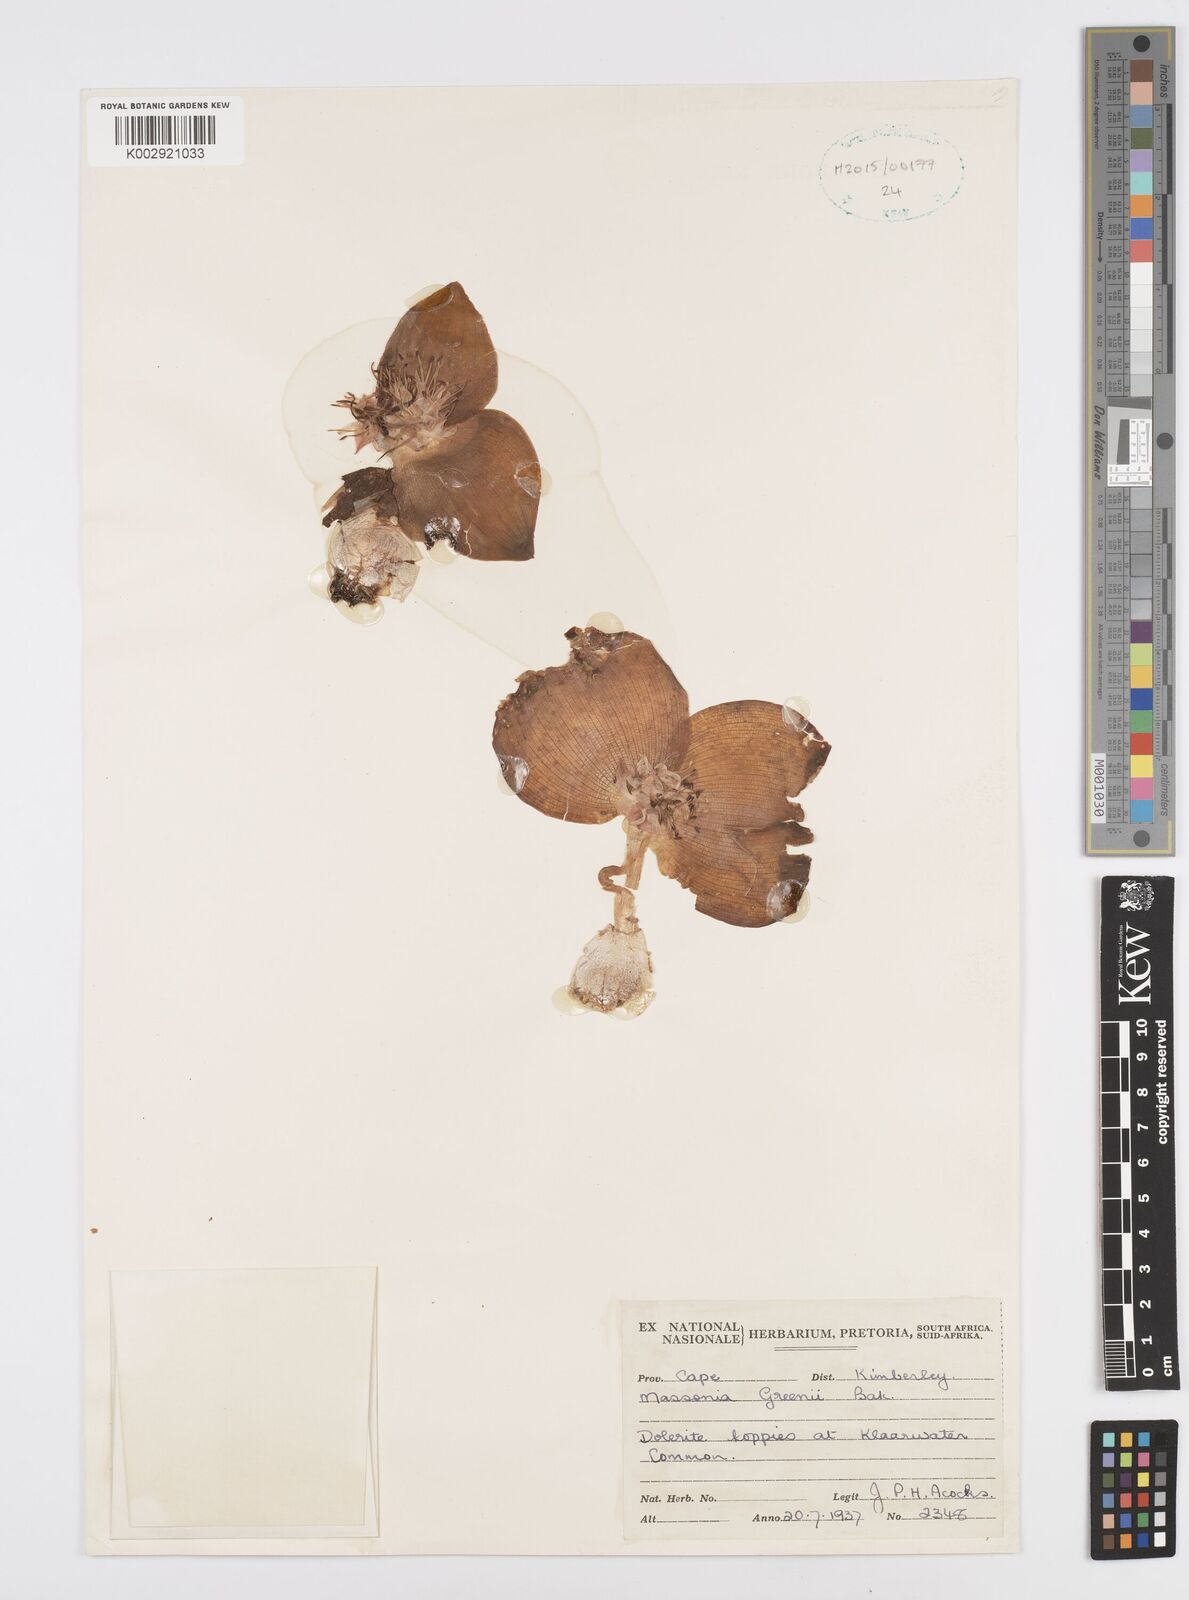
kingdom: Plantae
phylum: Tracheophyta
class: Liliopsida
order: Asparagales
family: Asparagaceae
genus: Massonia
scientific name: Massonia
